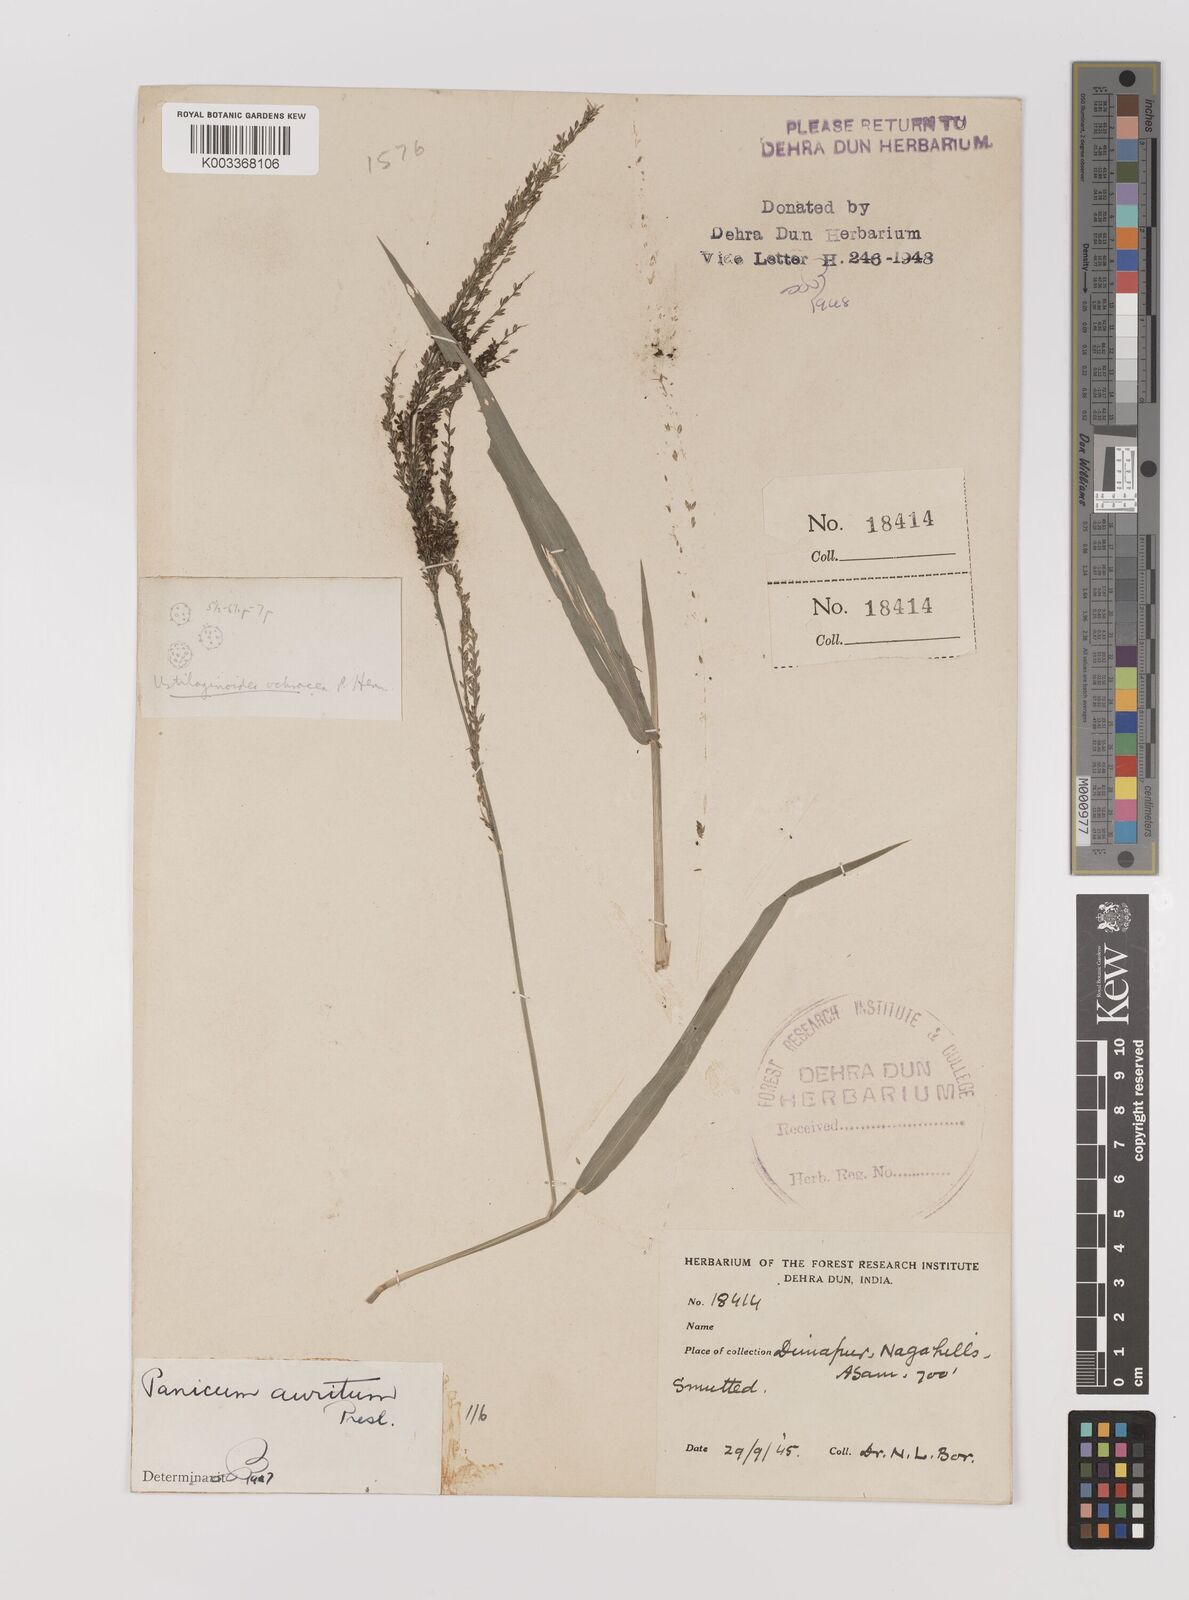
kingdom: Plantae
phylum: Tracheophyta
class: Liliopsida
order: Poales
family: Poaceae
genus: Hymenachne
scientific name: Hymenachne aurita
